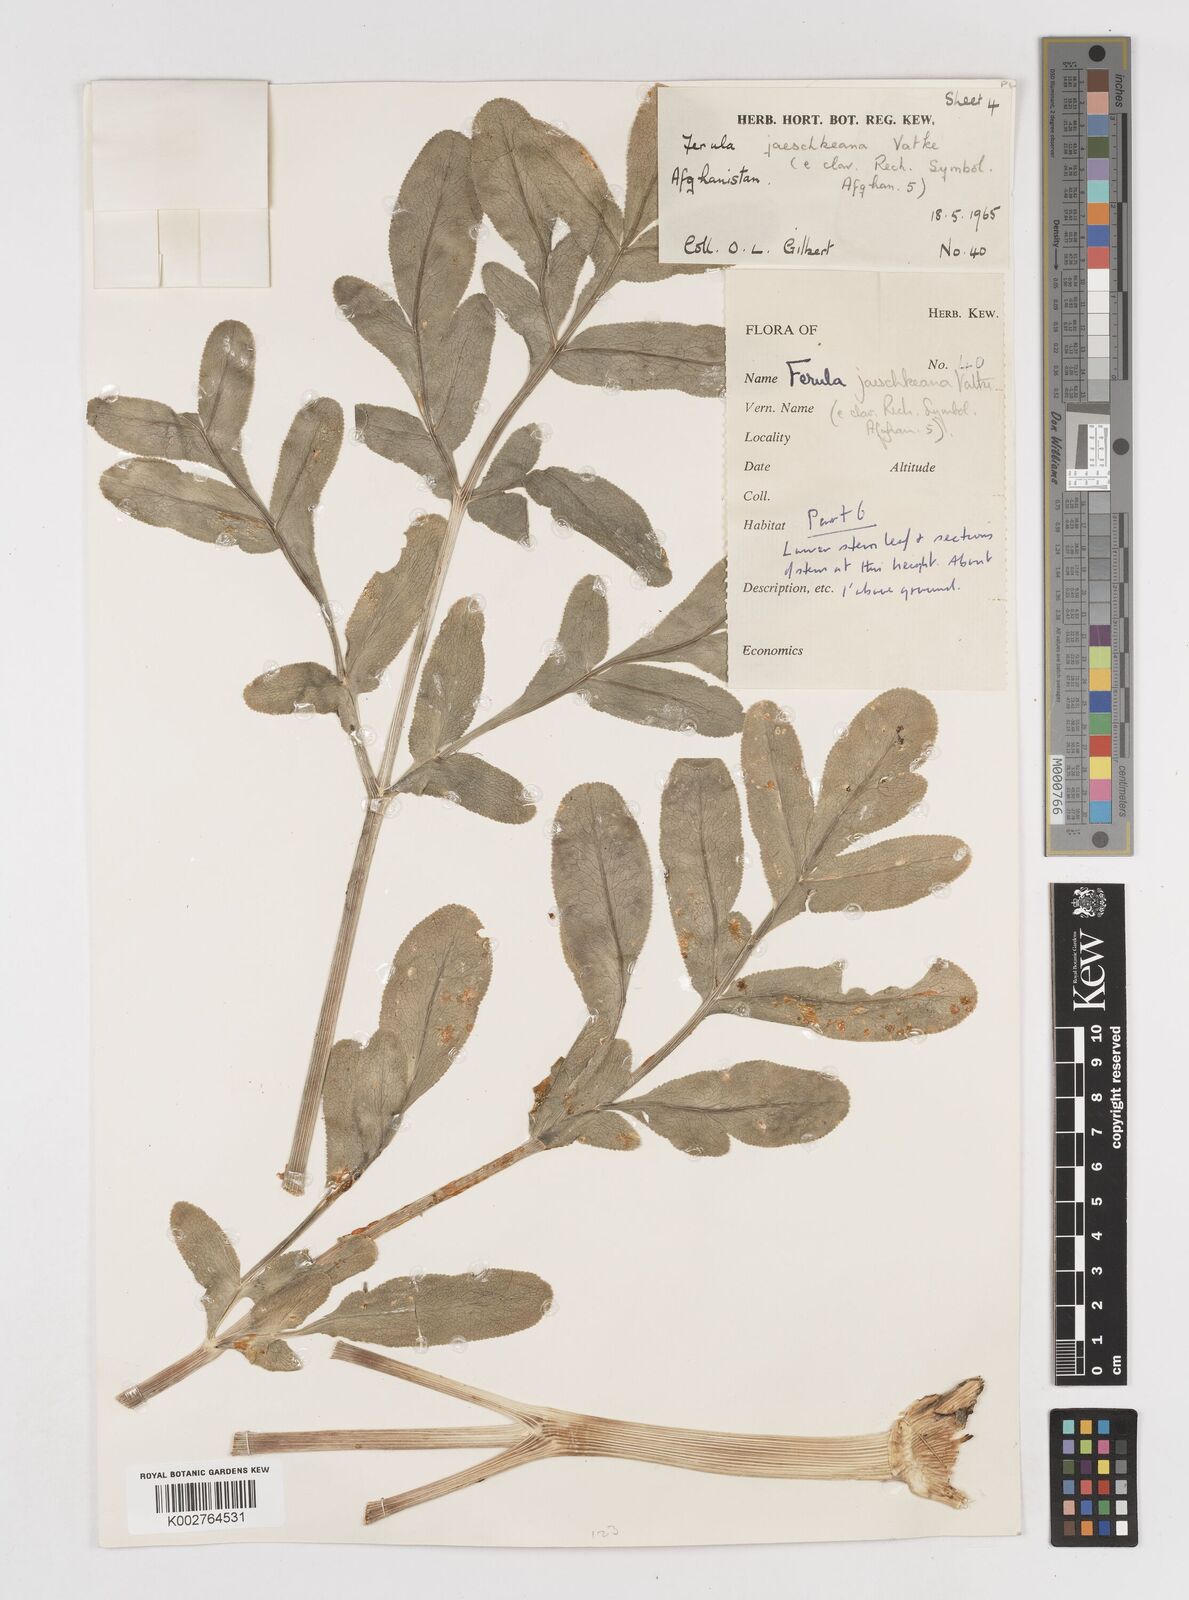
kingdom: Plantae
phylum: Tracheophyta
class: Magnoliopsida
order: Apiales
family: Apiaceae
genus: Ferula
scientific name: Ferula jaeschkeana
